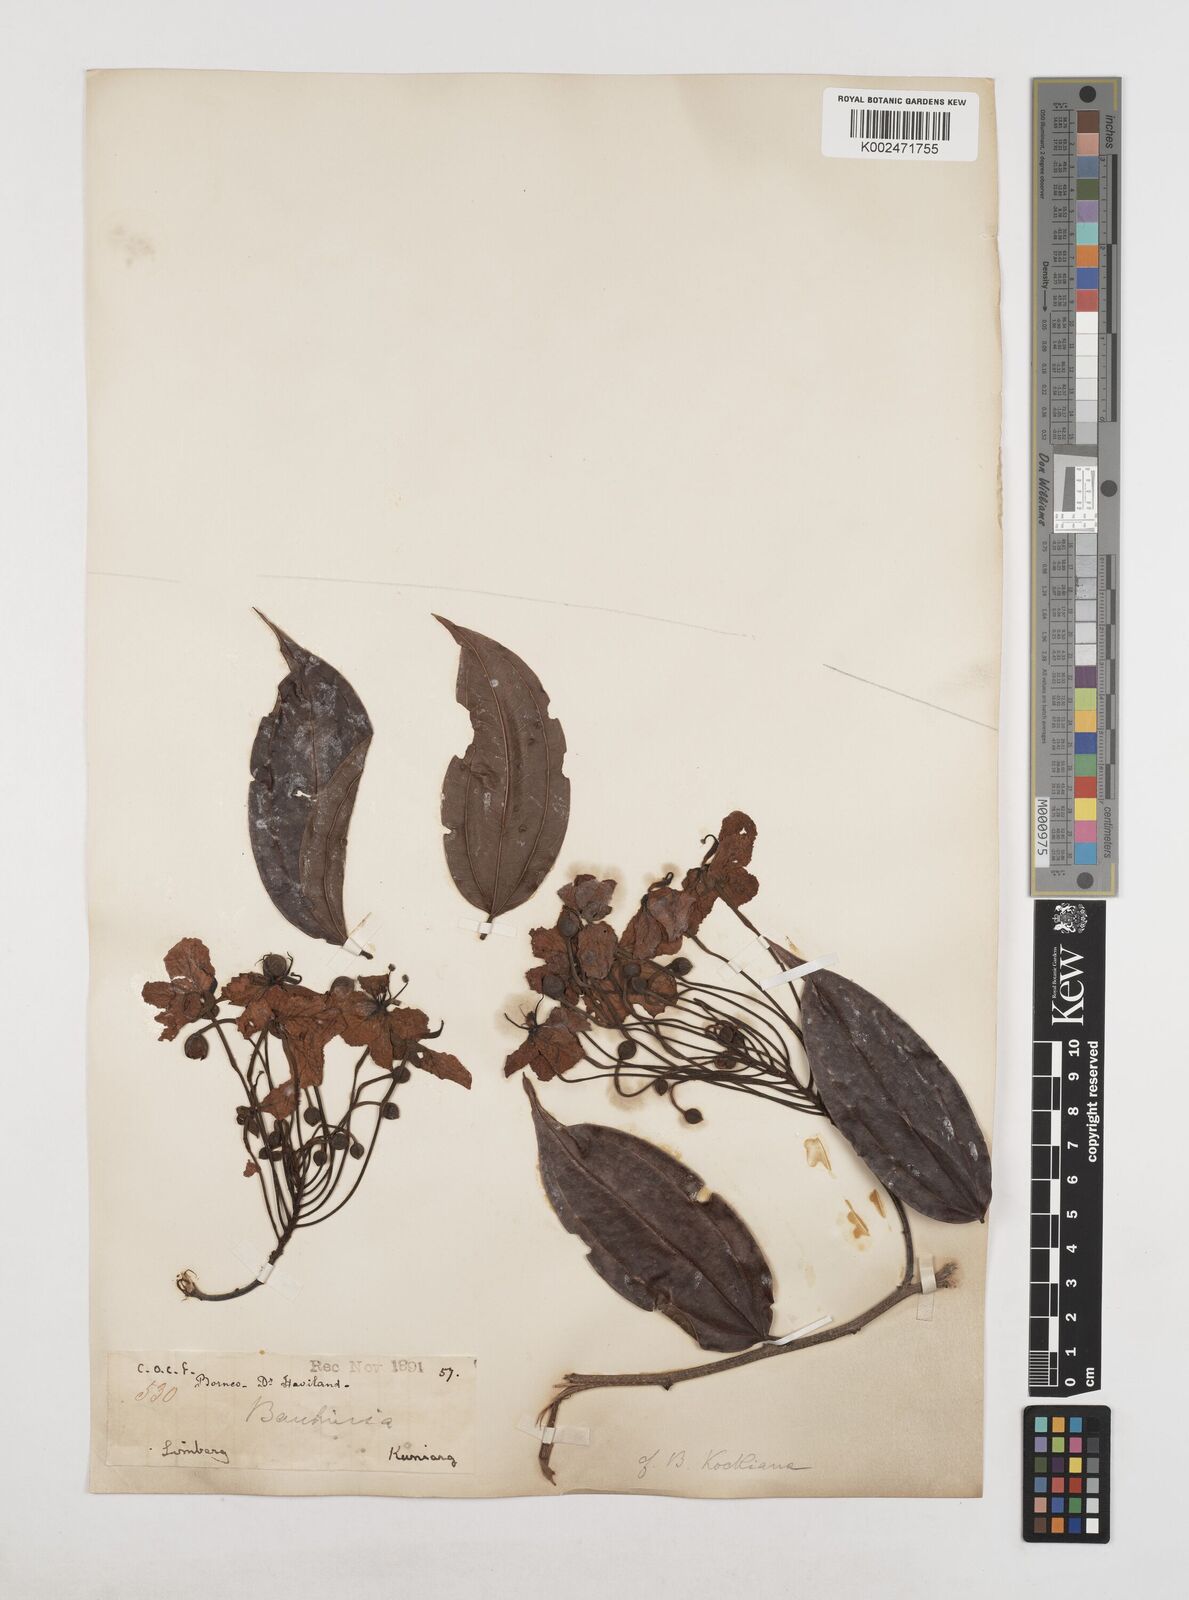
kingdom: Plantae
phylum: Tracheophyta
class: Magnoliopsida
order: Fabales
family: Fabaceae
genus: Phanera
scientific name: Phanera kockiana
